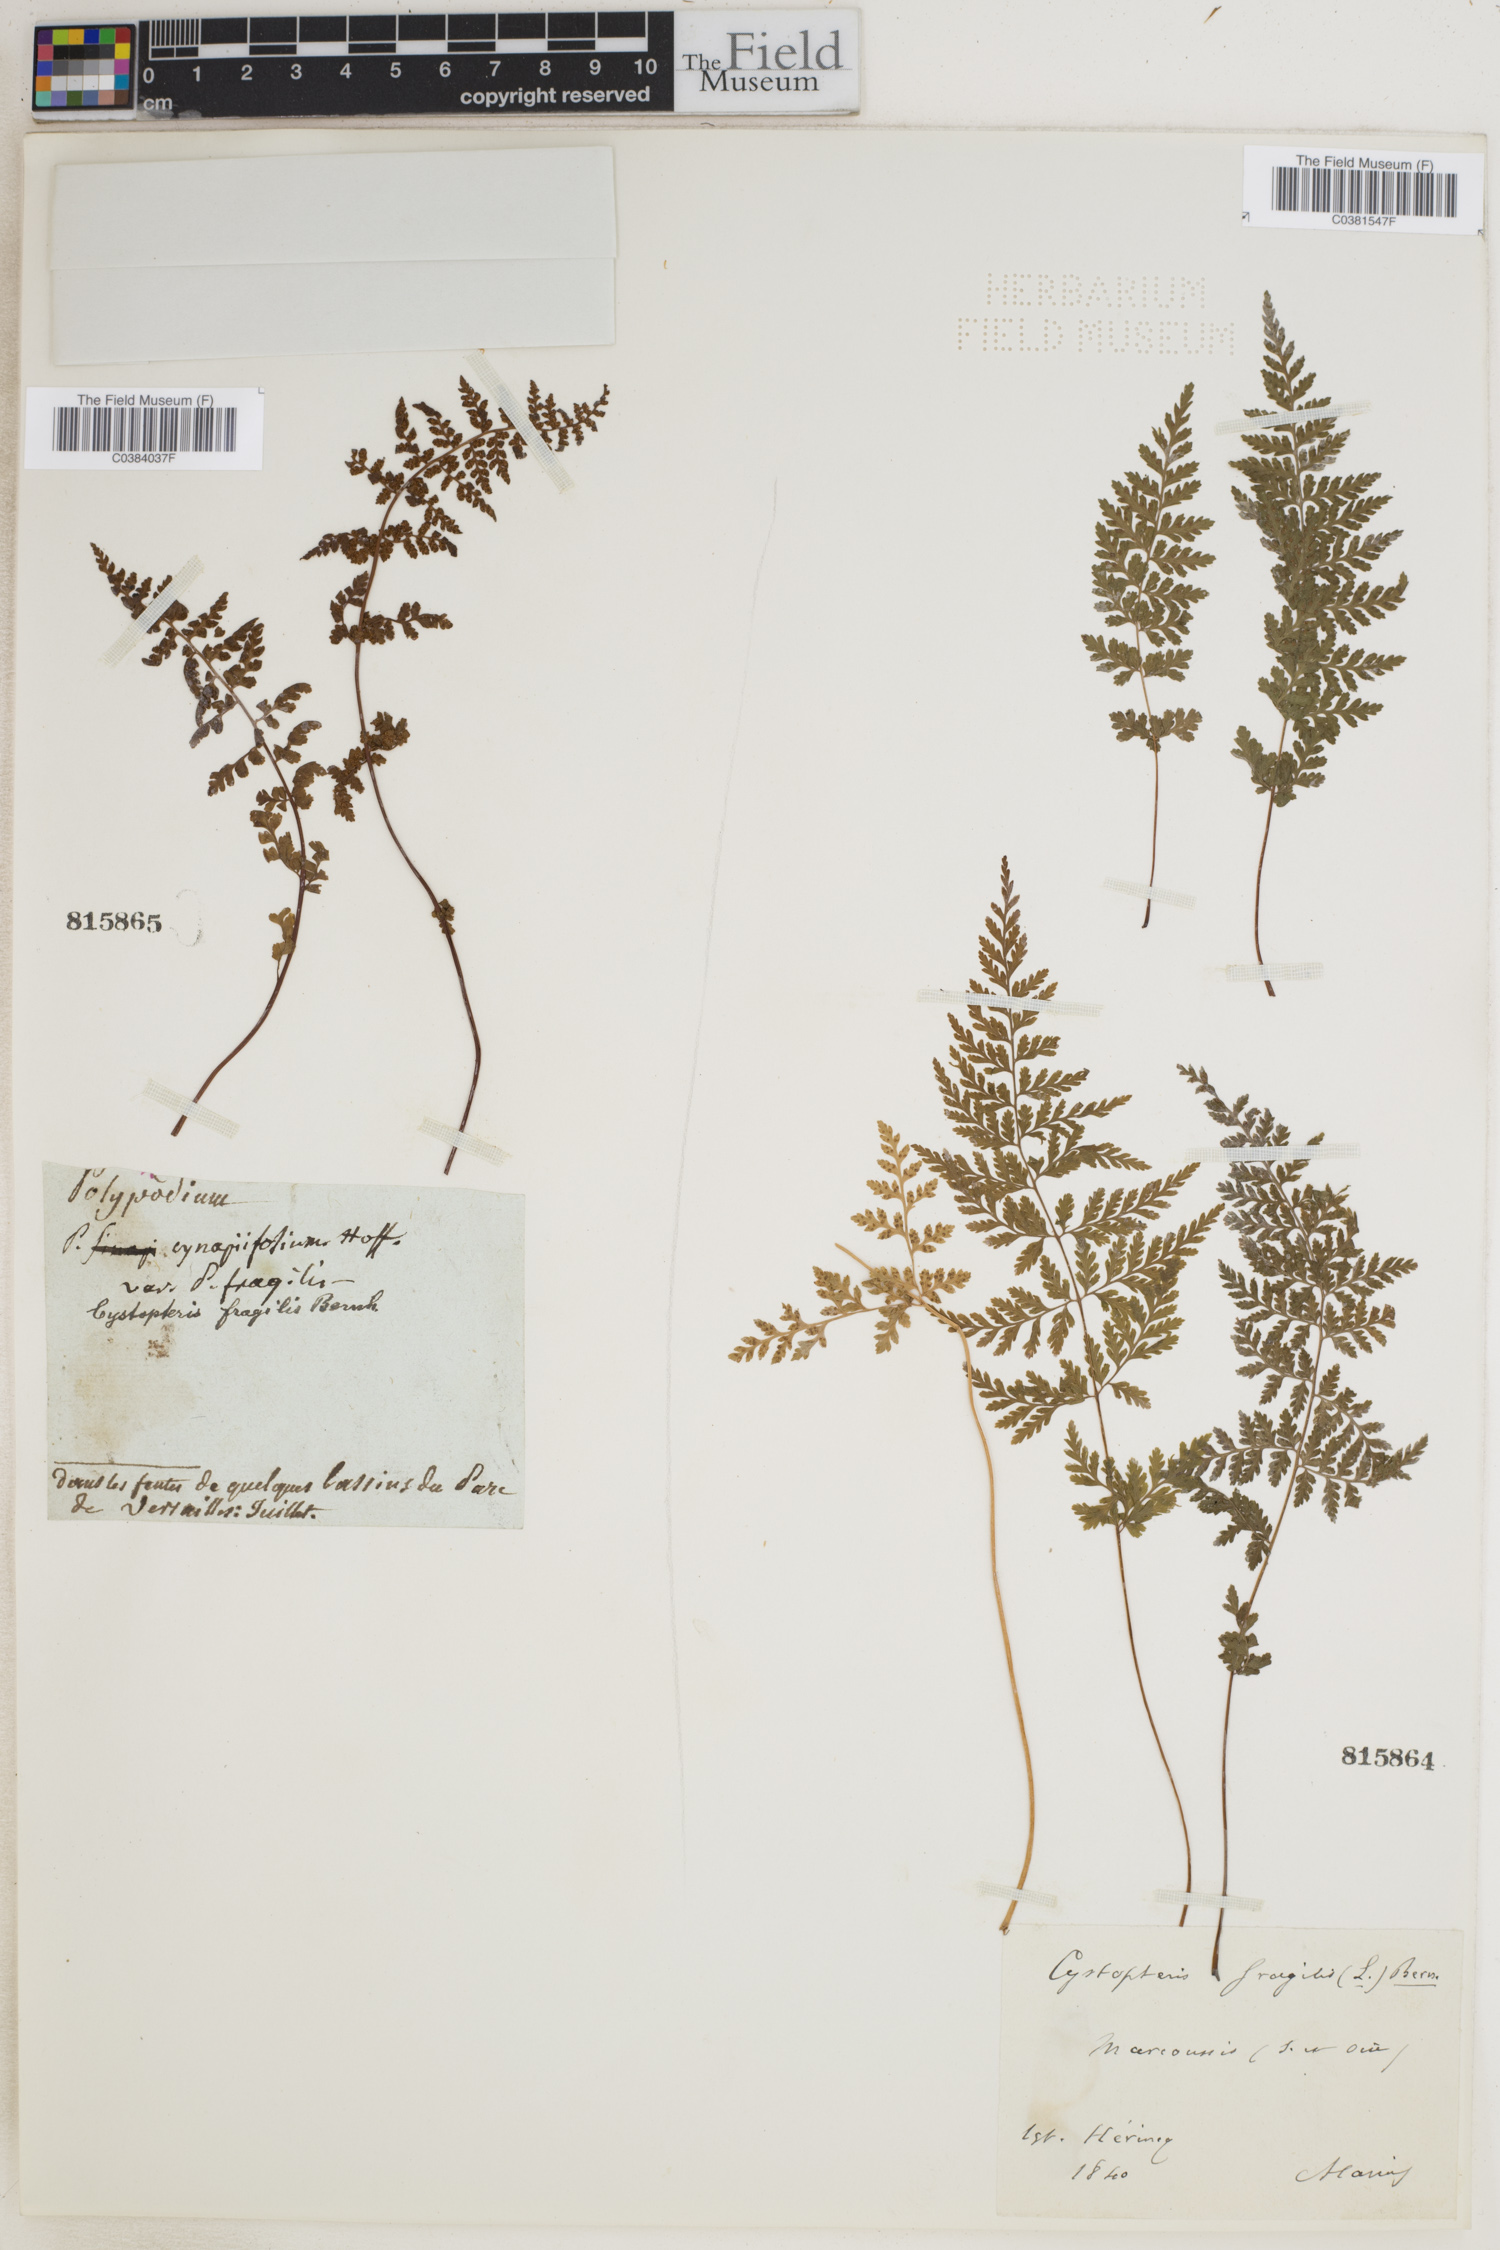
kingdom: Plantae
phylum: Tracheophyta
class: Polypodiopsida
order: Polypodiales
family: Cystopteridaceae
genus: Cystopteris
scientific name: Cystopteris fragilis
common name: Brittle bladder fern
